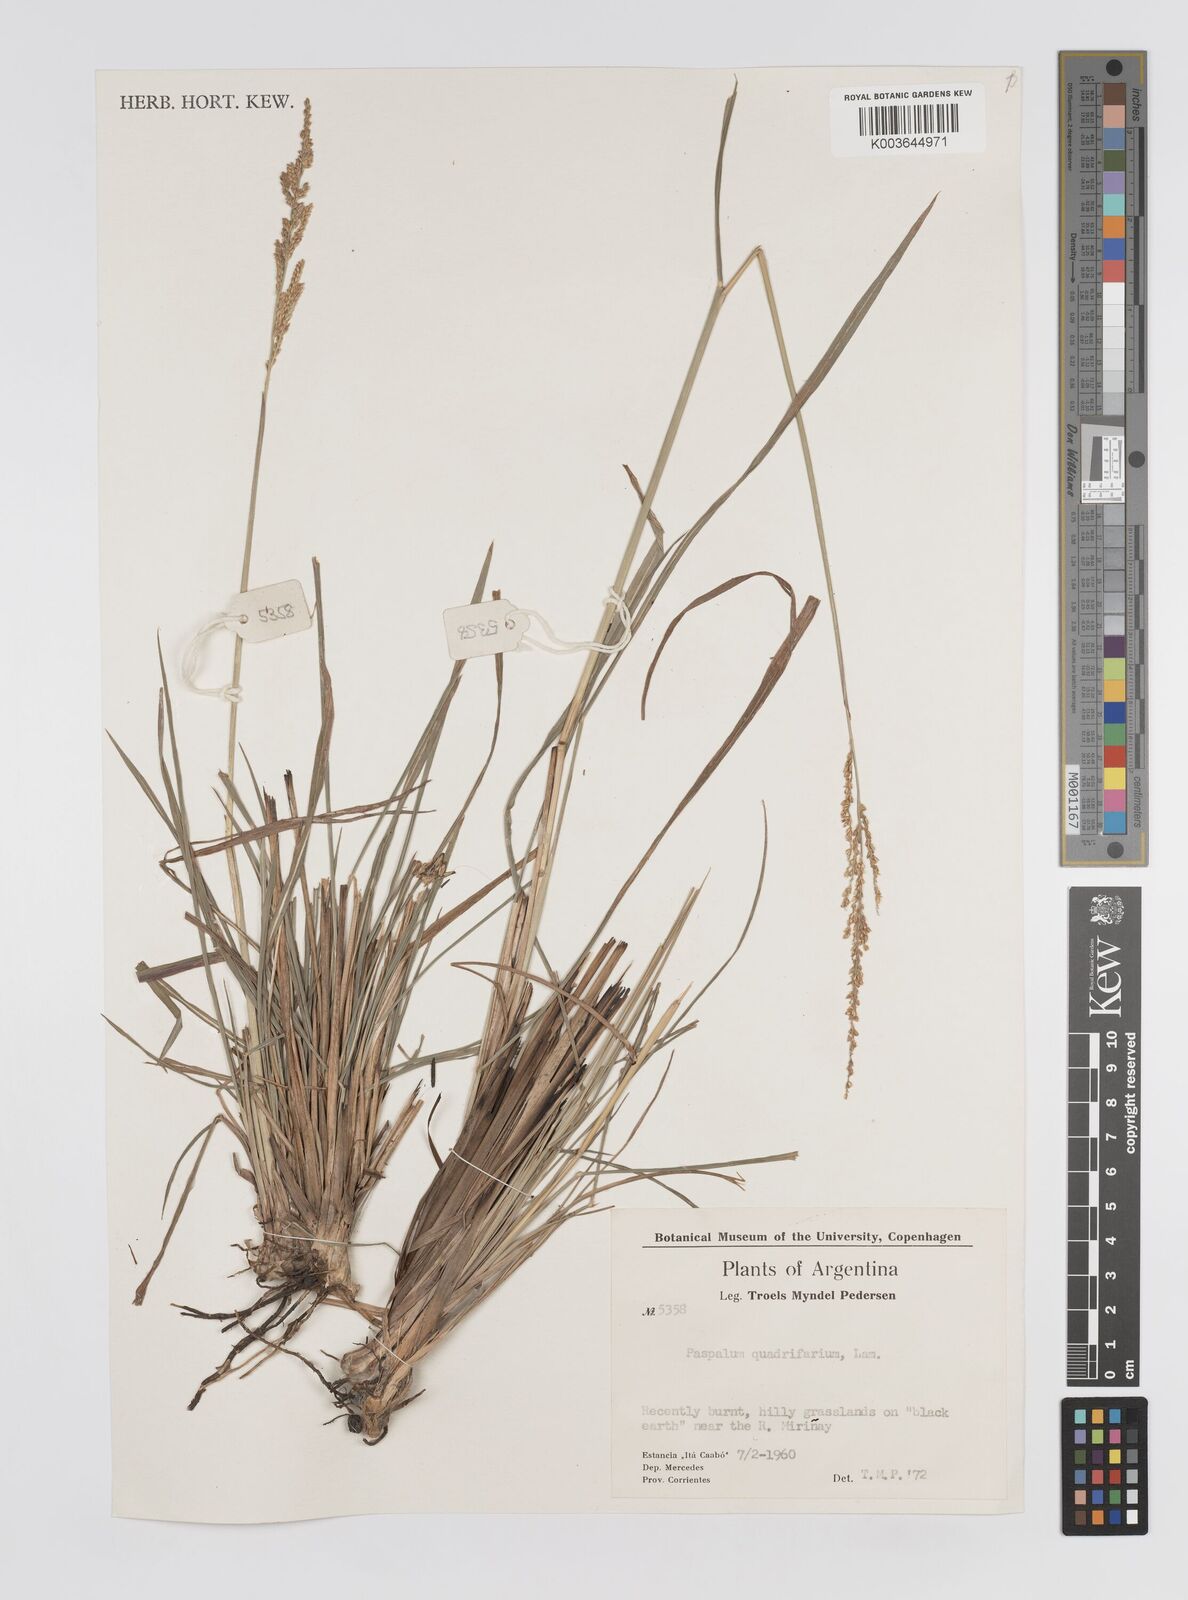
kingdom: Plantae
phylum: Tracheophyta
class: Liliopsida
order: Poales
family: Poaceae
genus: Paspalum
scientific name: Paspalum quadrifarium
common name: Tussock paspalum
